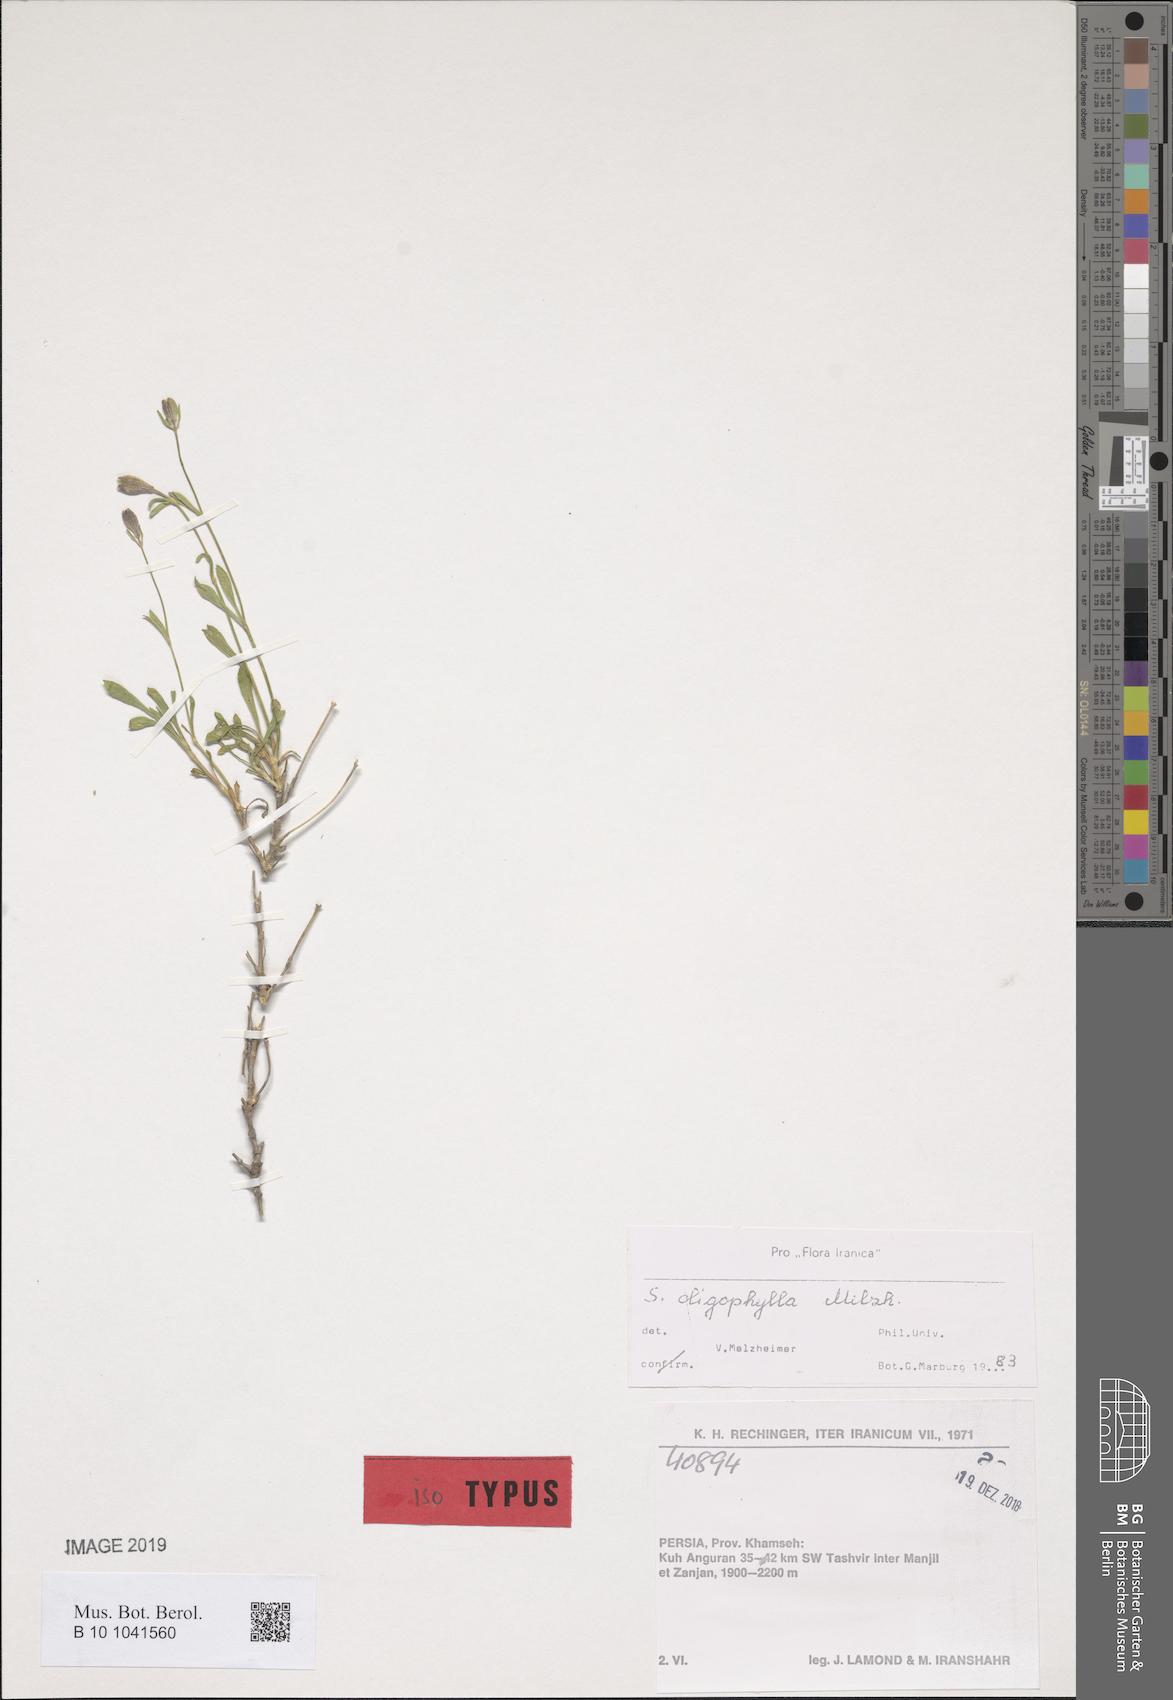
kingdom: Plantae
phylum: Tracheophyta
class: Magnoliopsida
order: Caryophyllales
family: Caryophyllaceae
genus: Silene
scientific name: Silene montbretiana
